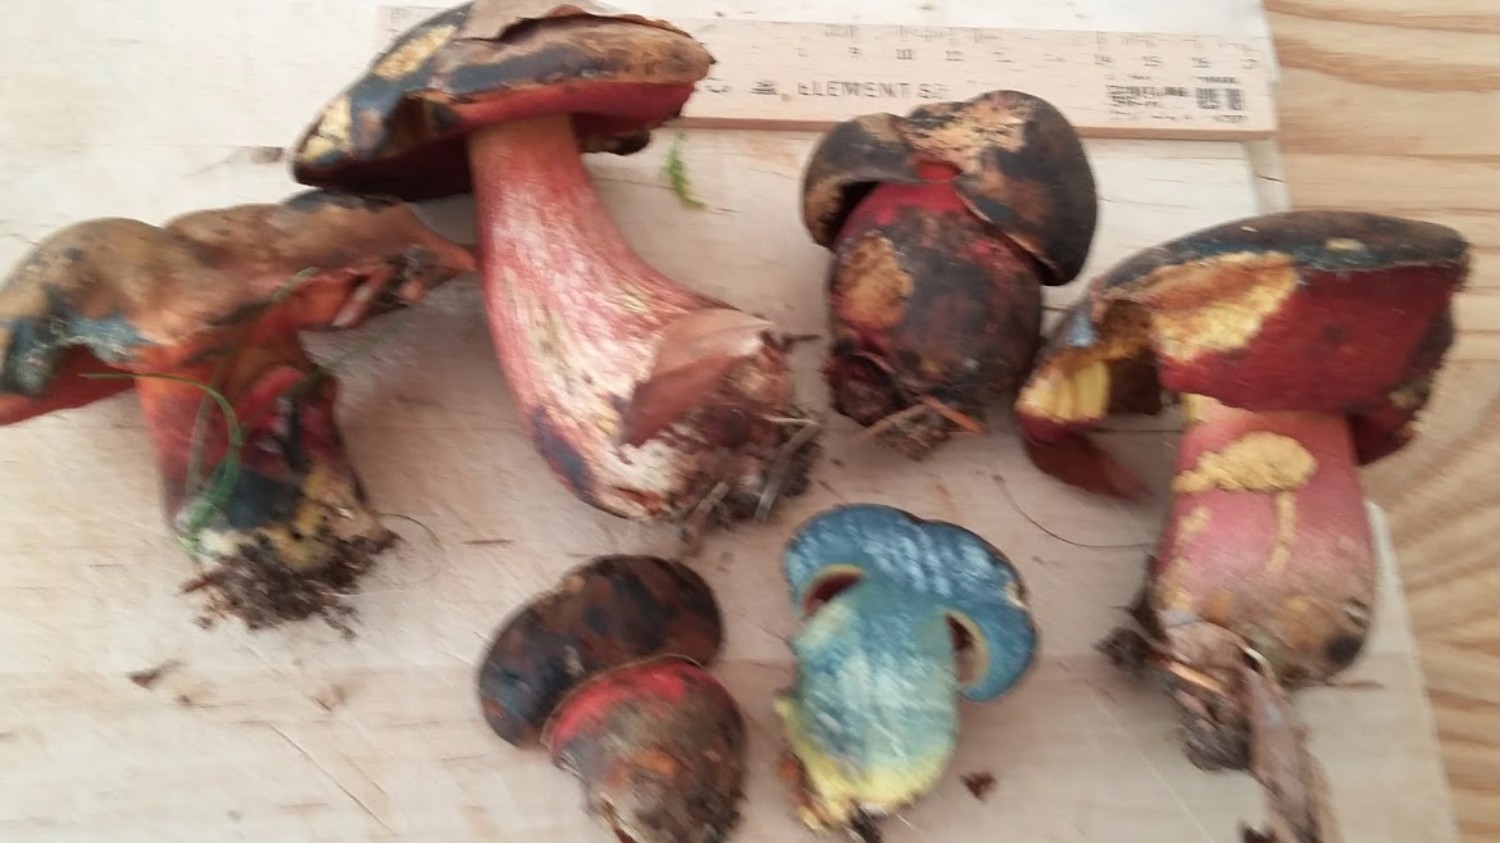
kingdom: Fungi
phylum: Basidiomycota
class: Agaricomycetes
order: Boletales
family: Boletaceae
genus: Neoboletus
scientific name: Neoboletus erythropus
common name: punktstokket indigorørhat
